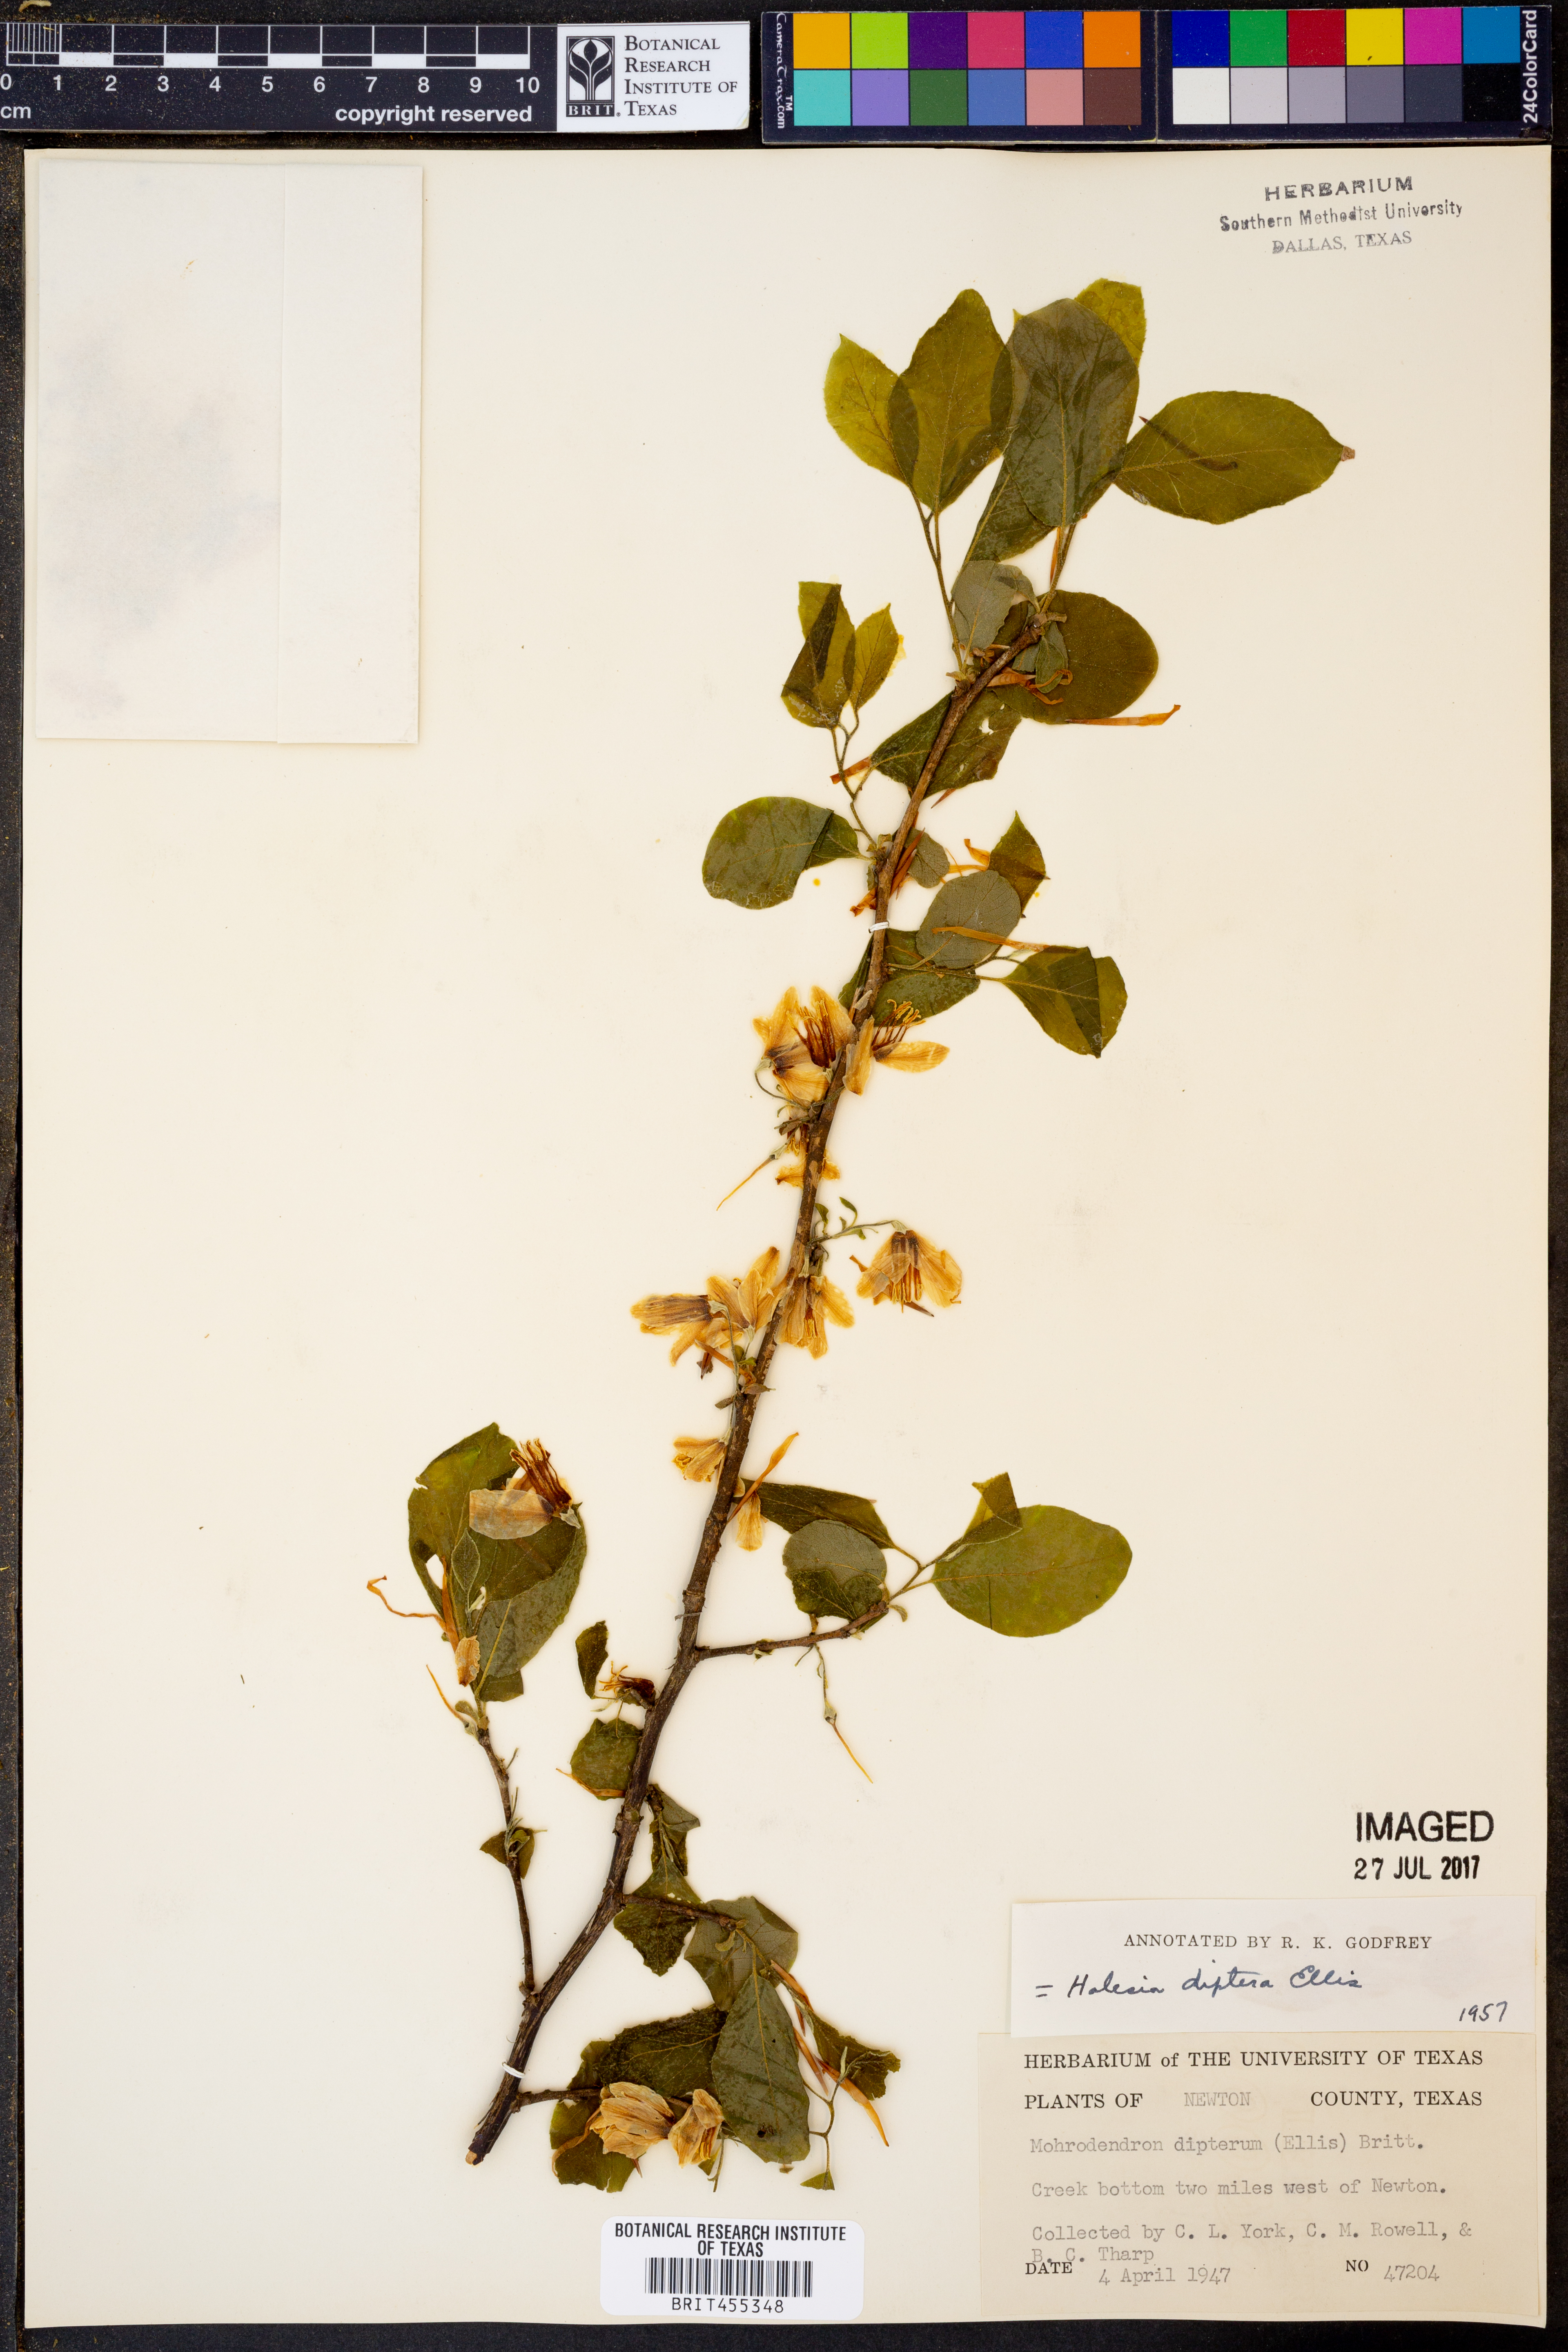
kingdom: Plantae
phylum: Tracheophyta
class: Magnoliopsida
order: Ericales
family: Styracaceae
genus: Halesia
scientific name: Halesia diptera
